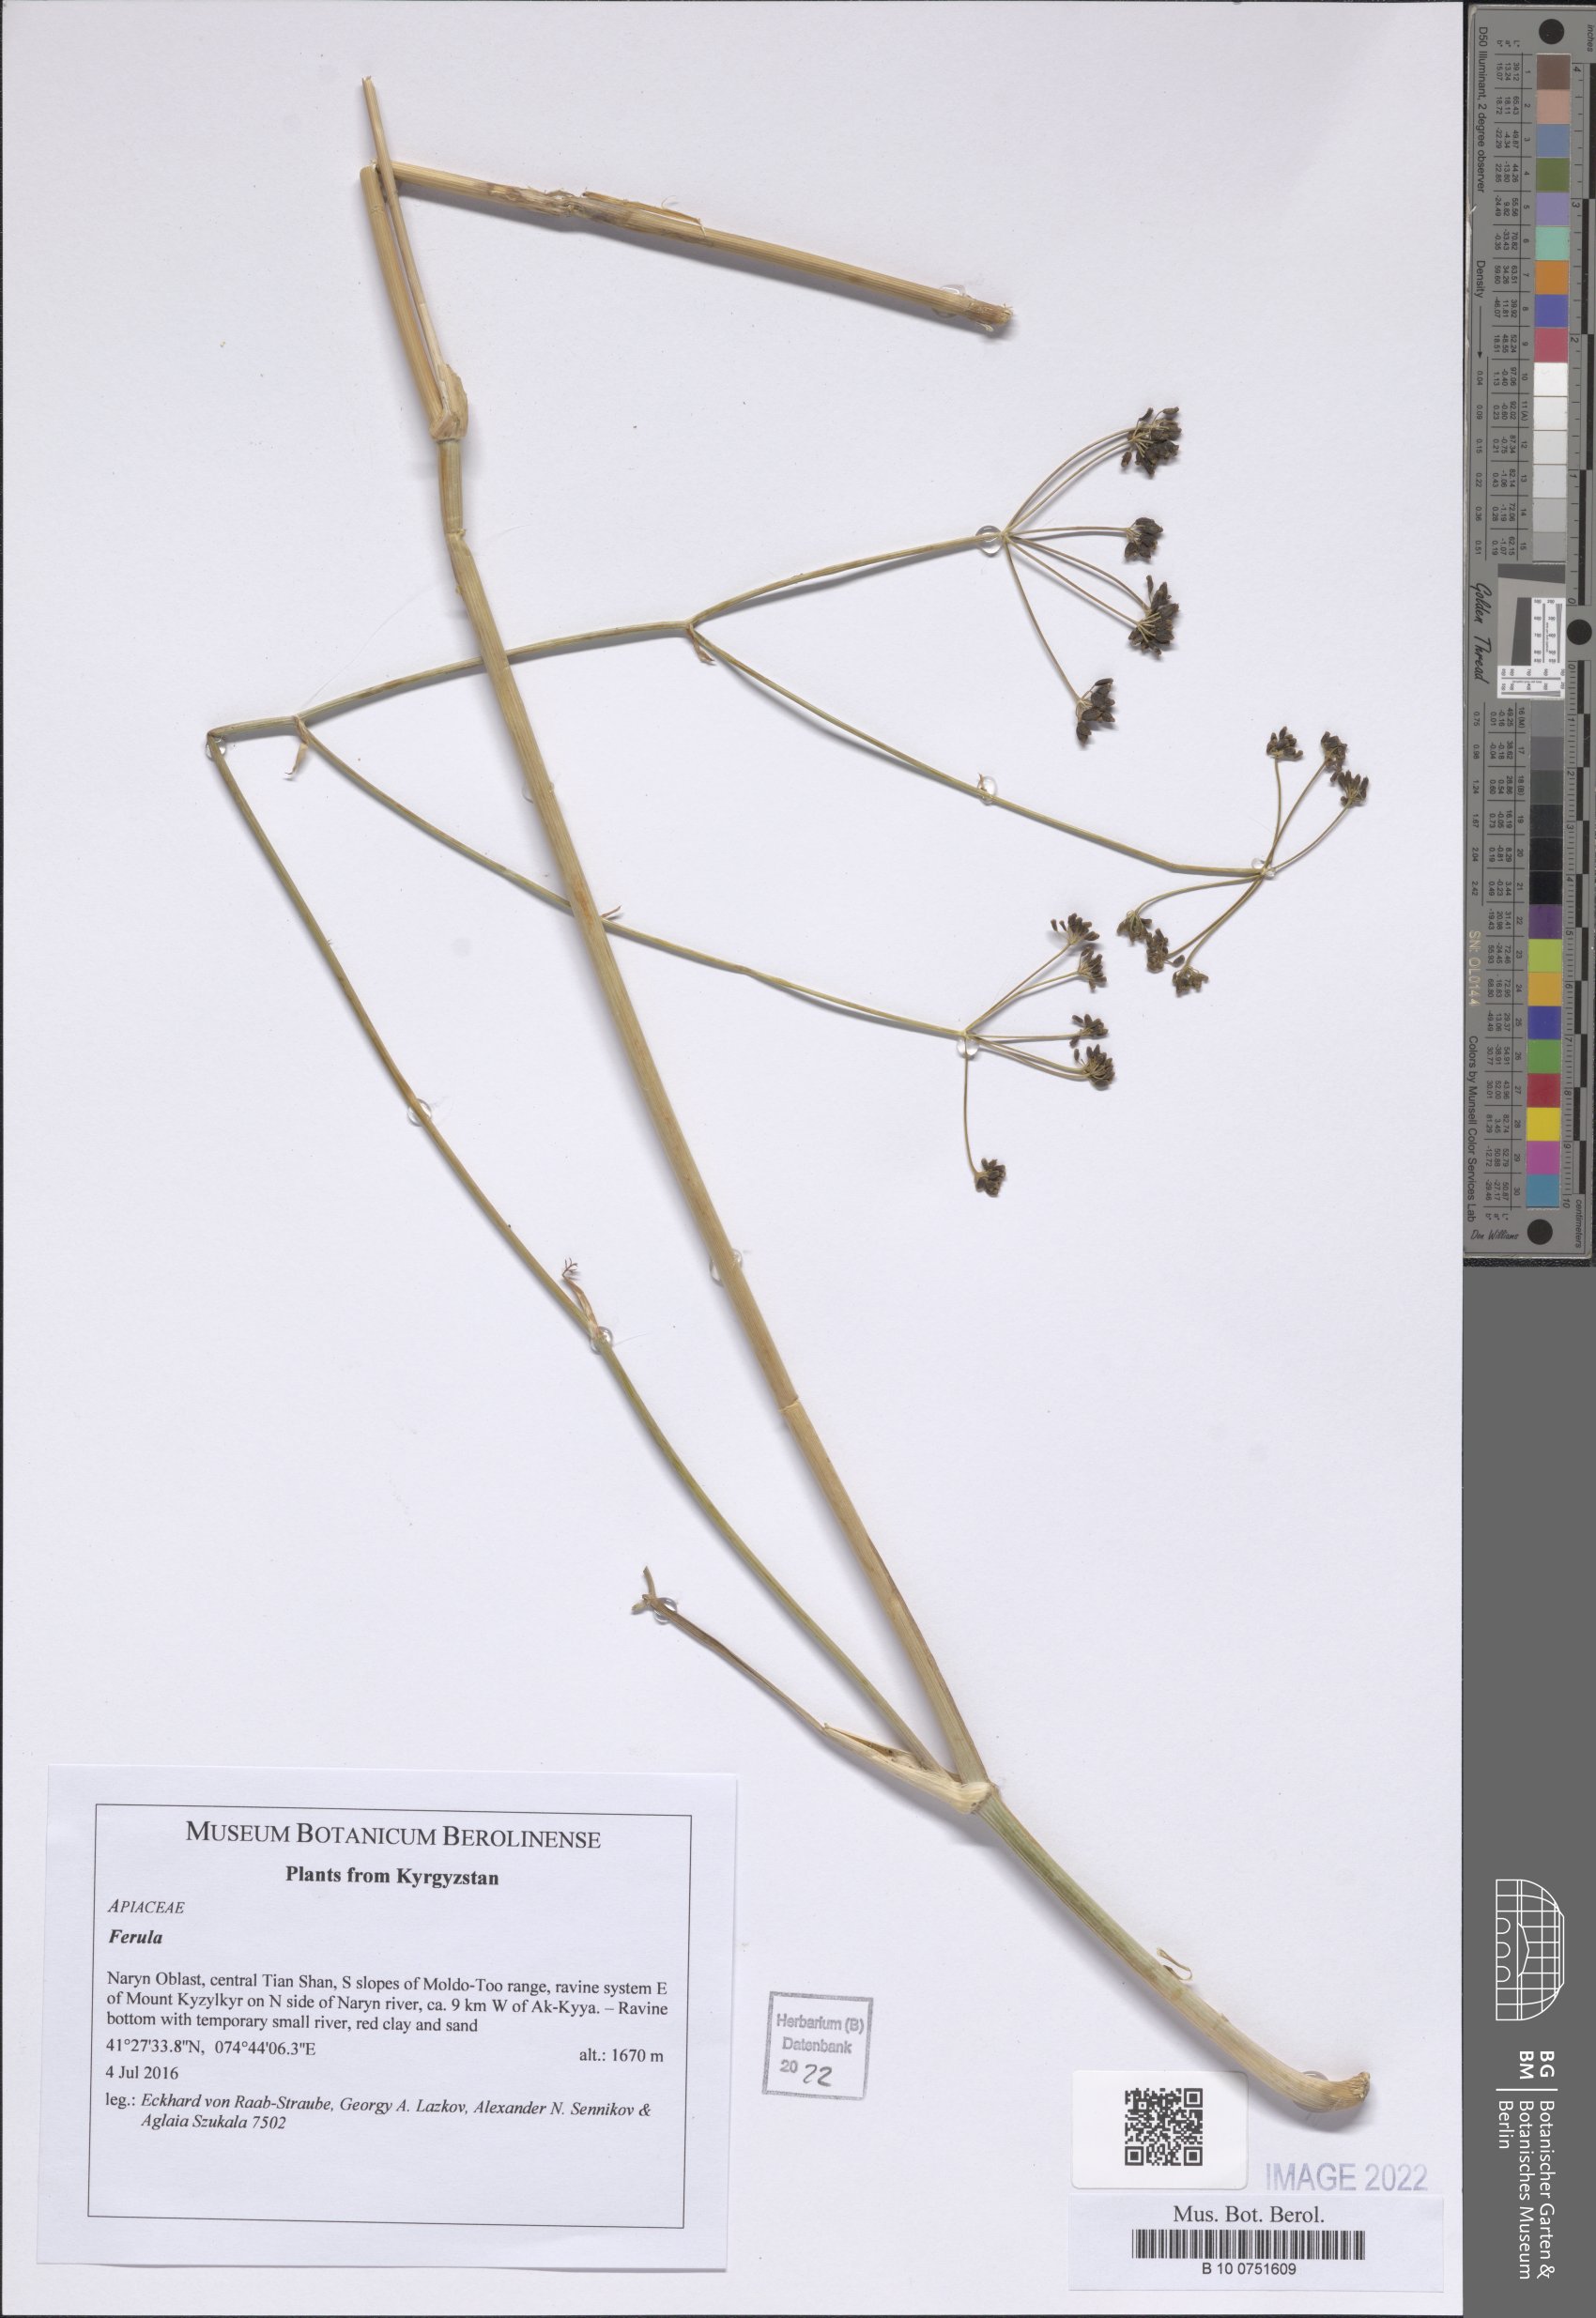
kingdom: Plantae
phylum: Tracheophyta
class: Magnoliopsida
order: Apiales
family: Apiaceae
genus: Ferula
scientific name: Ferula
